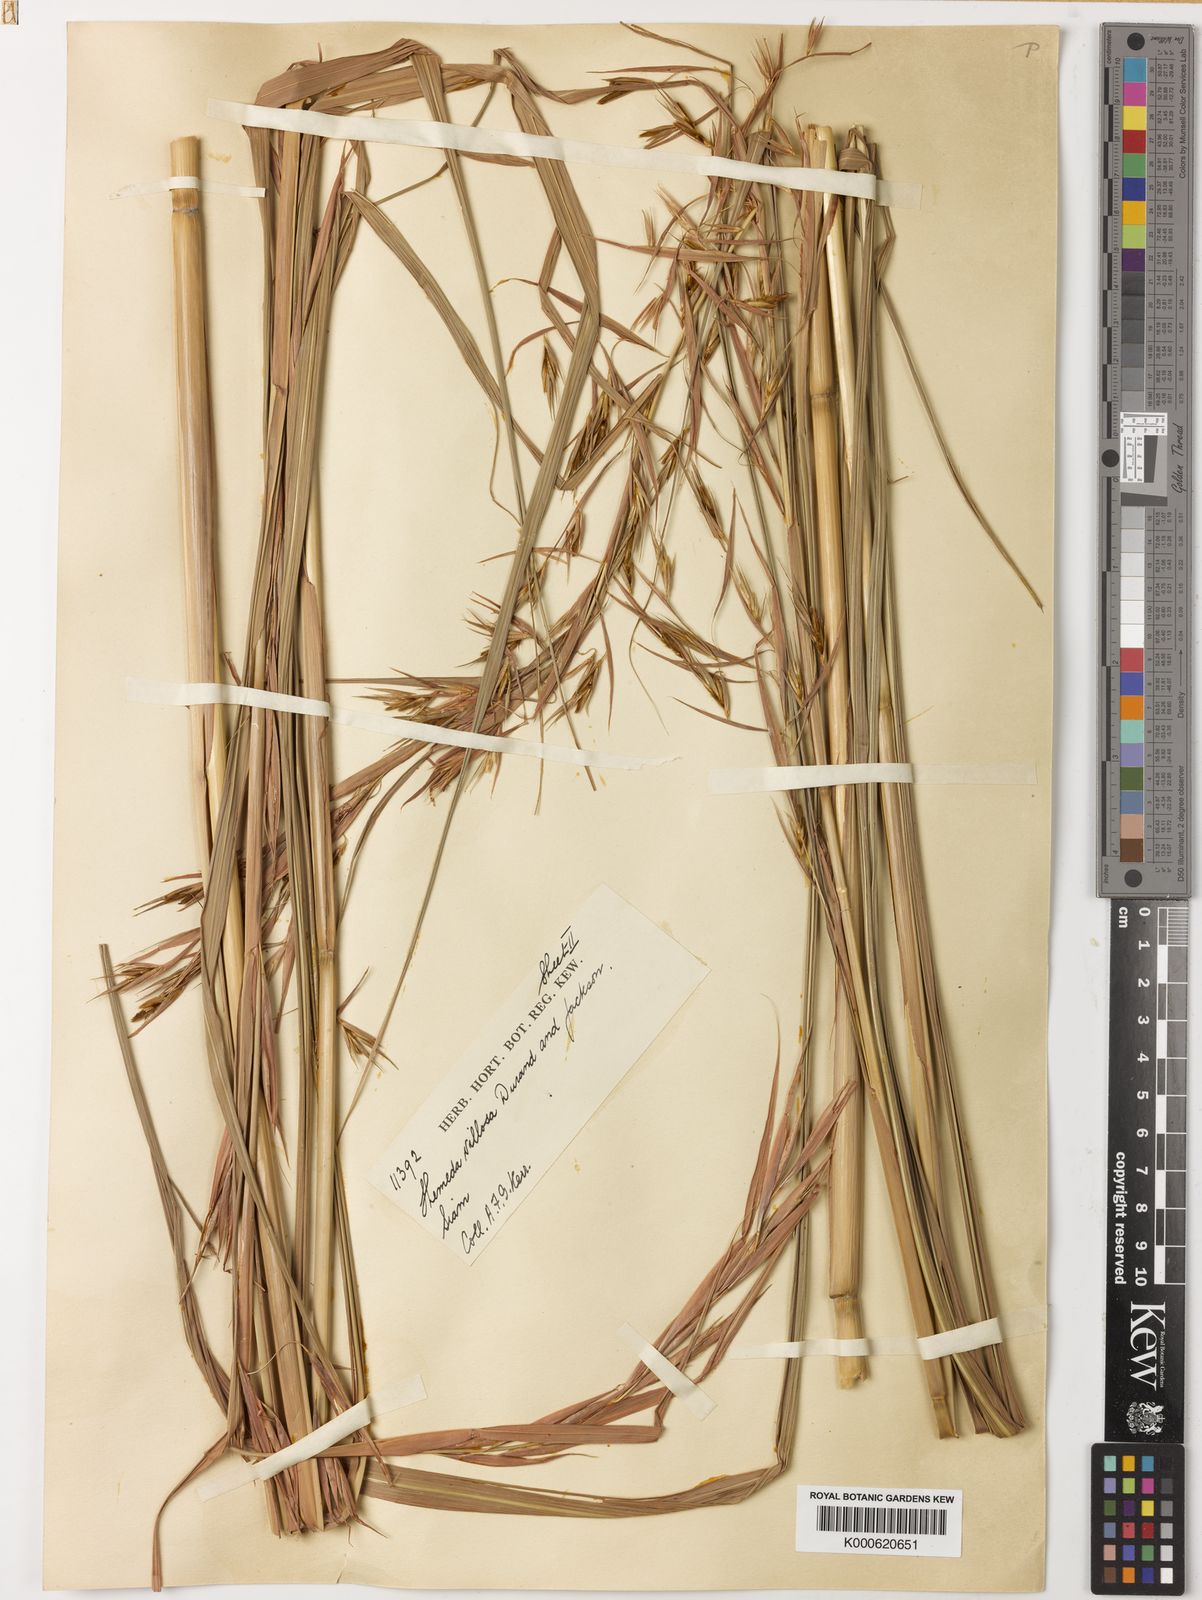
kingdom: Plantae
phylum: Tracheophyta
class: Liliopsida
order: Poales
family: Poaceae
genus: Themeda
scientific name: Themeda villosa
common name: Silky kangaroo grass
